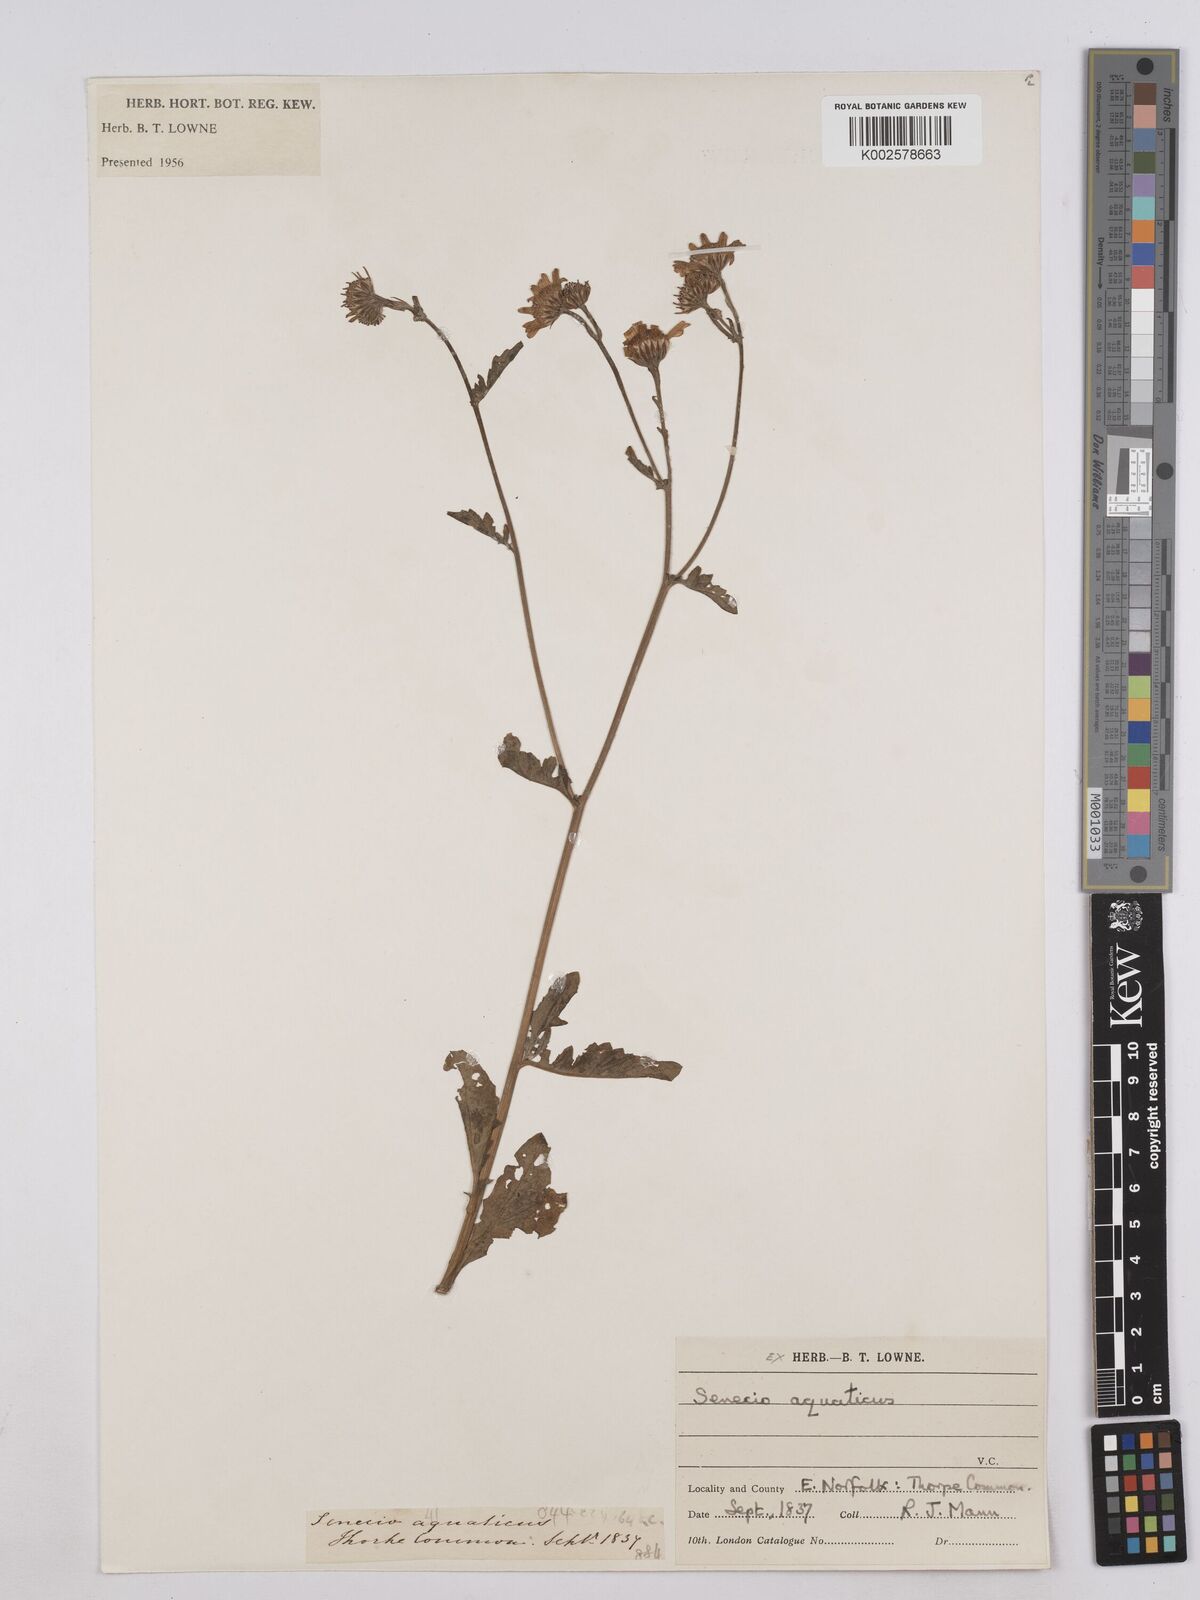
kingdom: Plantae
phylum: Tracheophyta
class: Magnoliopsida
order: Asterales
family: Asteraceae
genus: Jacobaea
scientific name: Jacobaea aquatica
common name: Water ragwort
